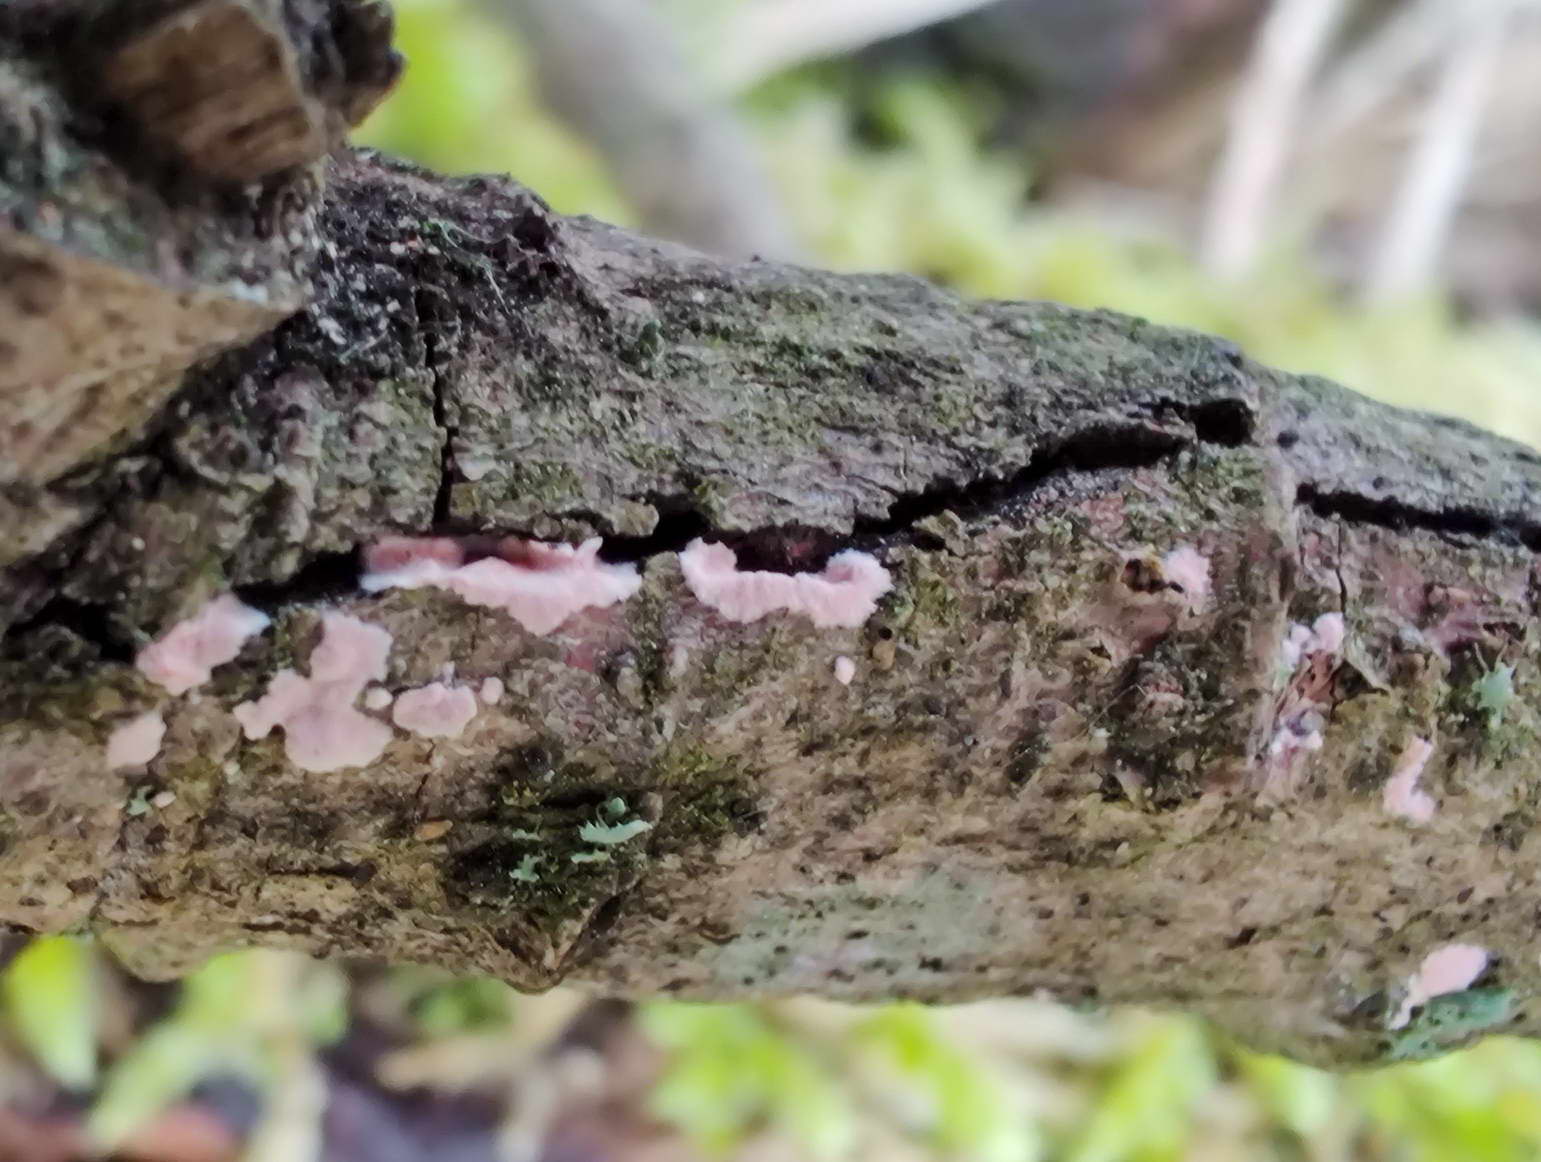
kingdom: Fungi
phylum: Basidiomycota
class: Agaricomycetes
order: Corticiales
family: Corticiaceae
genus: Corticium
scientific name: Corticium roseum
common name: rosa barkskind
